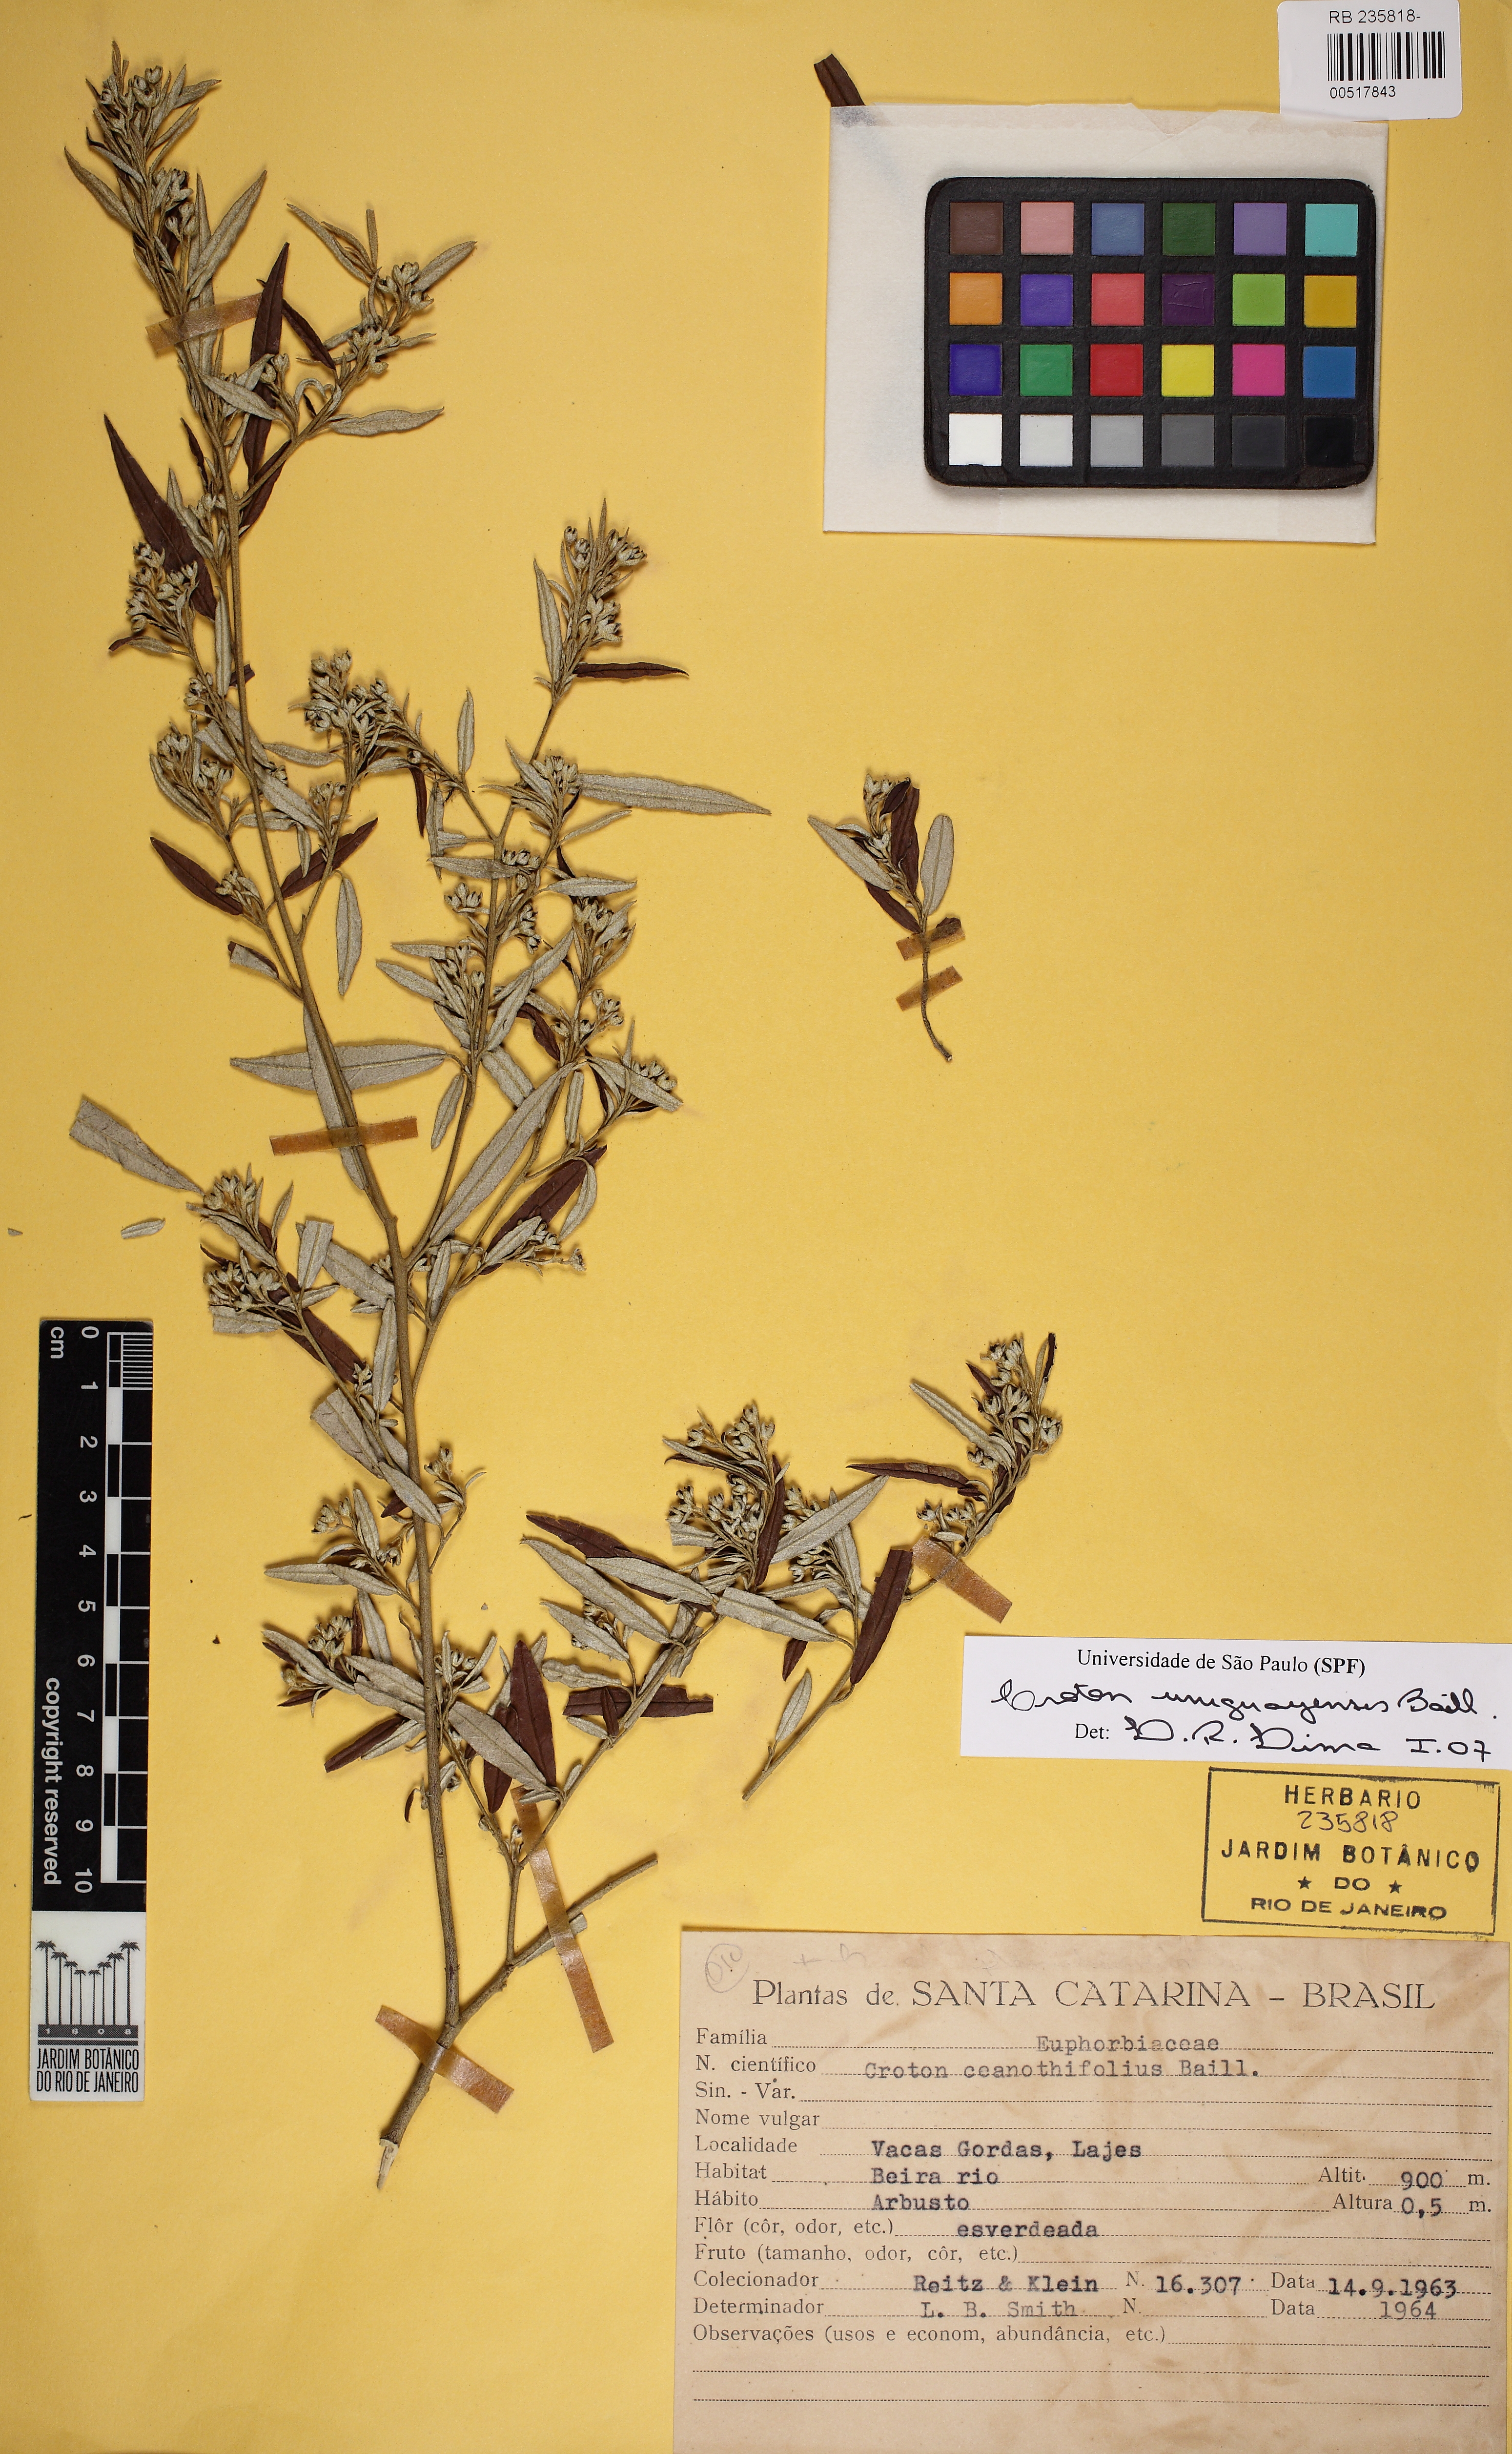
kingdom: Plantae
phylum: Tracheophyta
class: Magnoliopsida
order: Malpighiales
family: Euphorbiaceae
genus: Croton
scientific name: Croton uruguayensis
